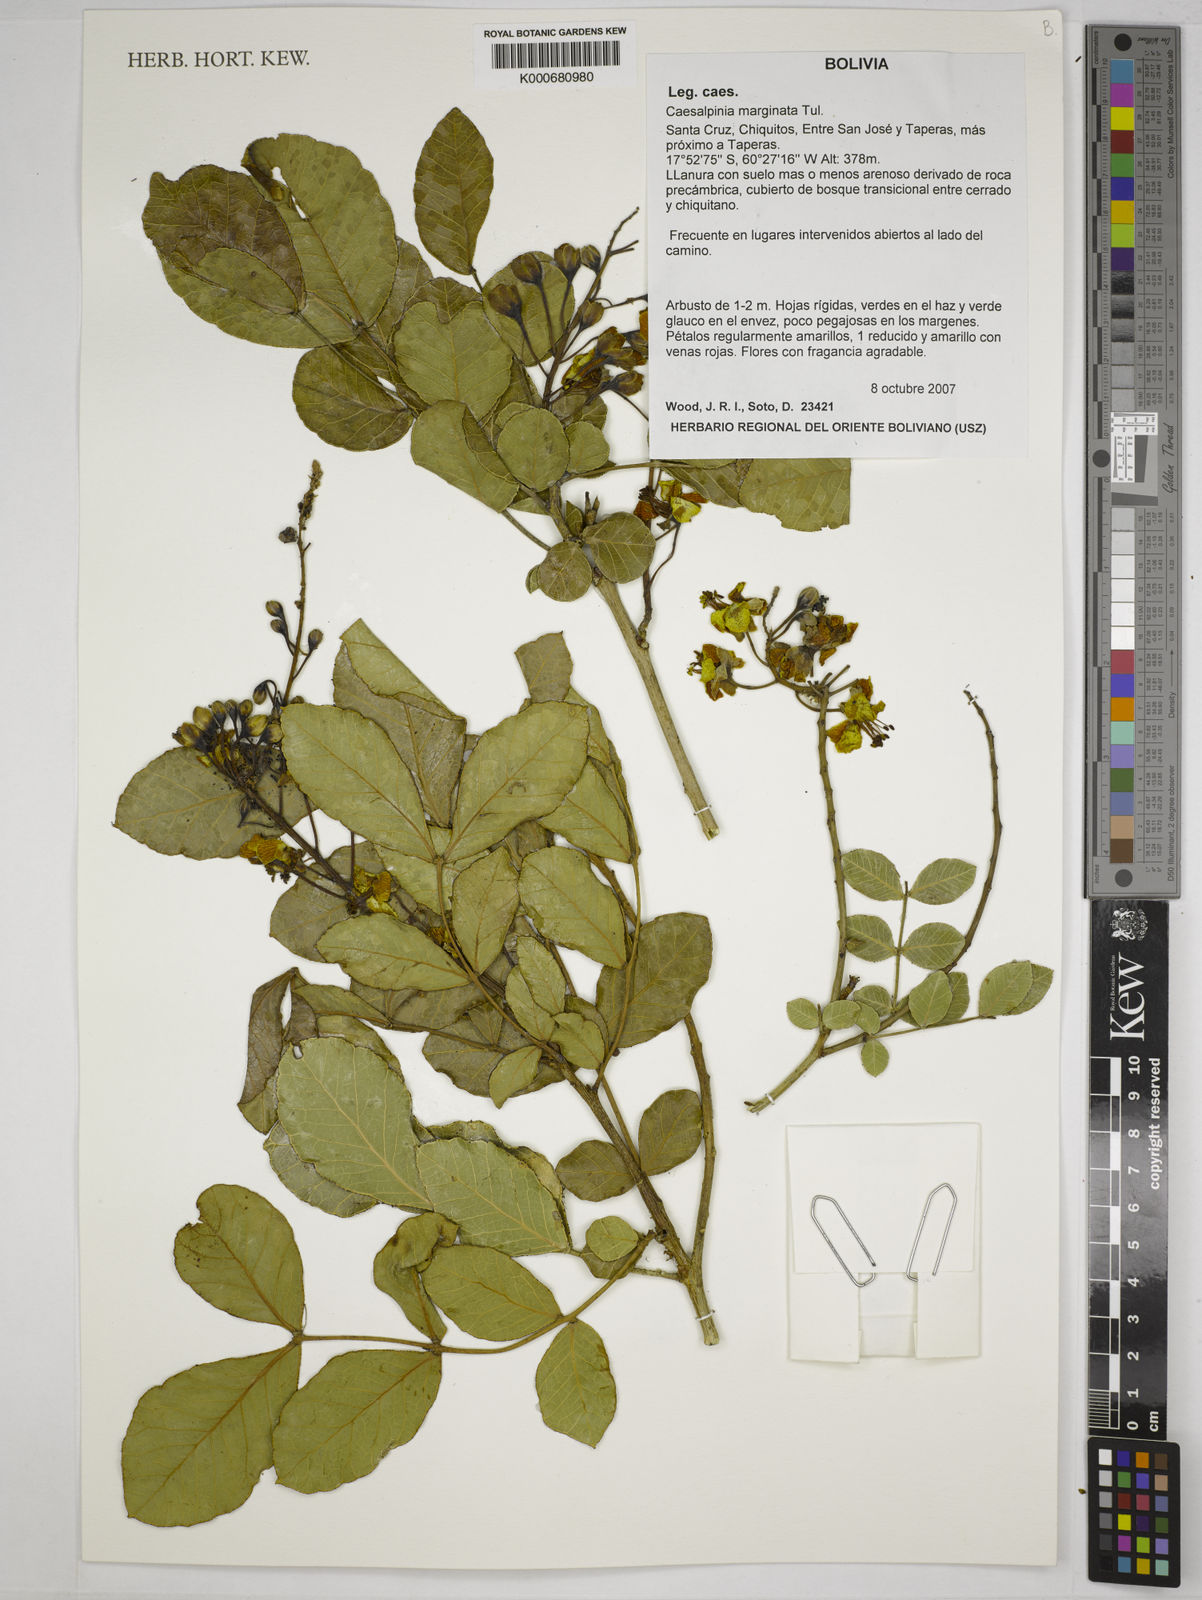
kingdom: Plantae
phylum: Tracheophyta
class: Magnoliopsida
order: Fabales
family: Fabaceae
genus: Cenostigma
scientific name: Cenostigma marginatum
